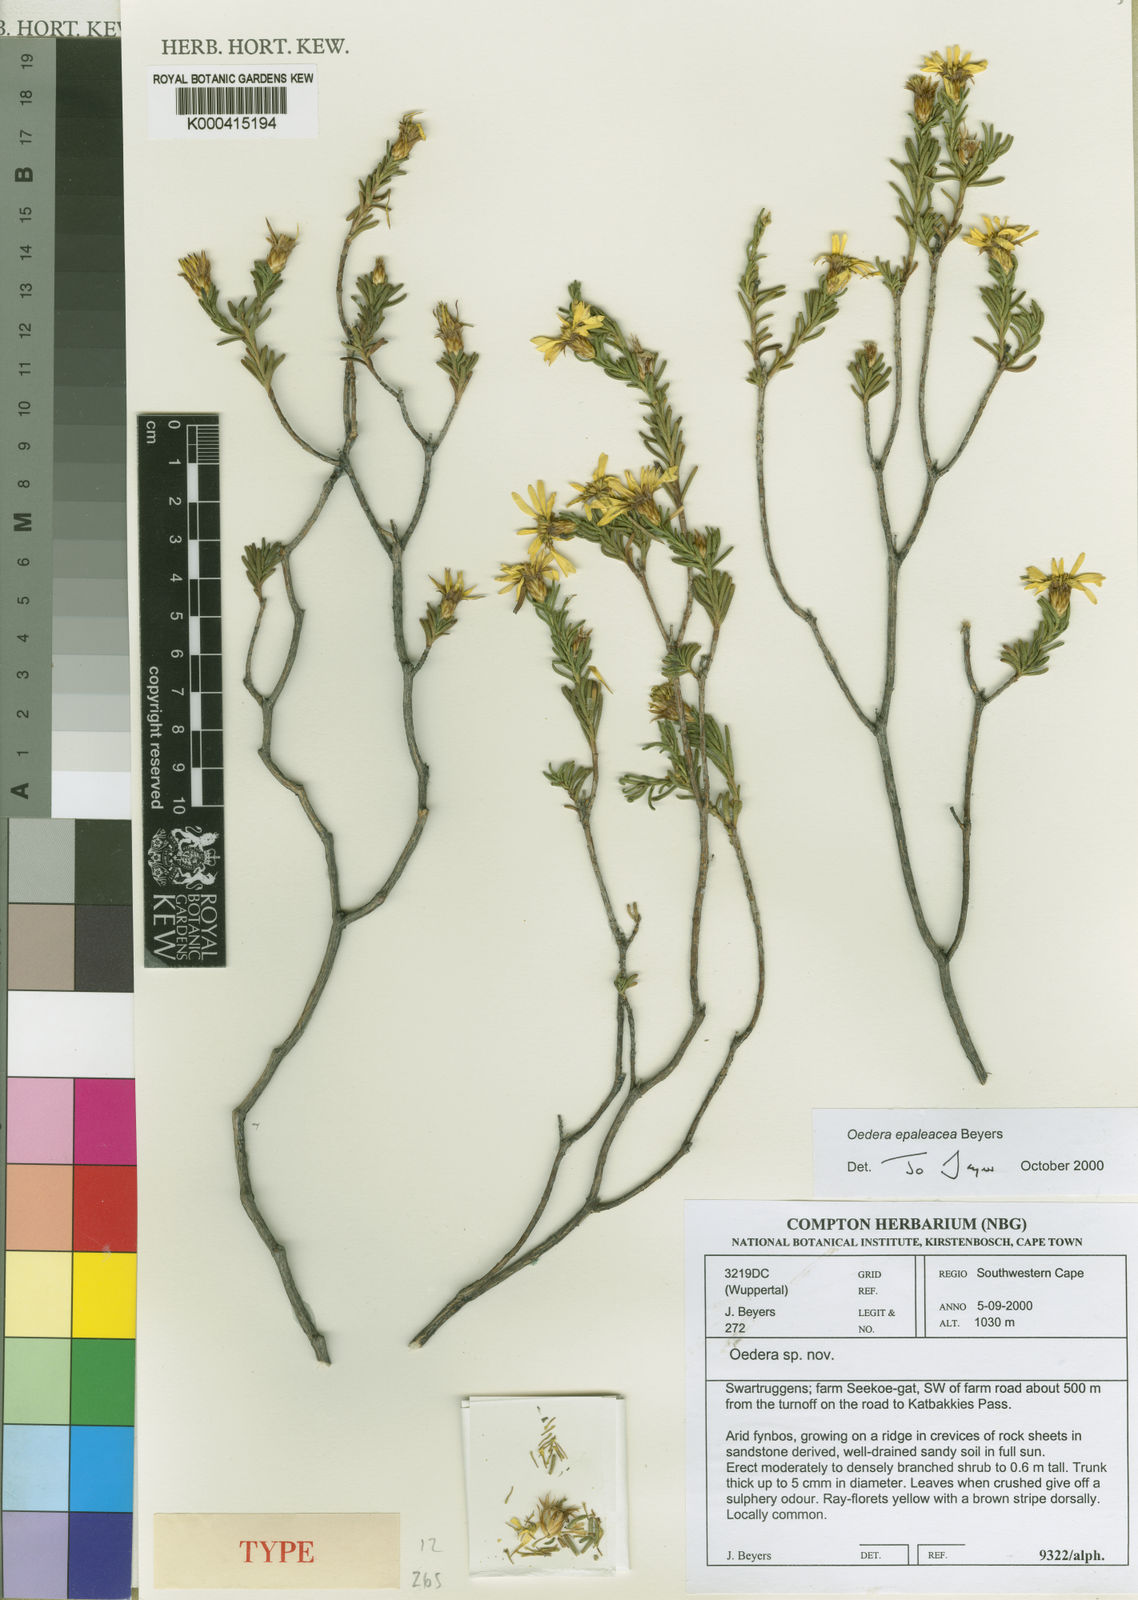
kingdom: Plantae
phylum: Tracheophyta
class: Magnoliopsida
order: Asterales
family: Asteraceae
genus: Oedera
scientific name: Oedera epaleacea
